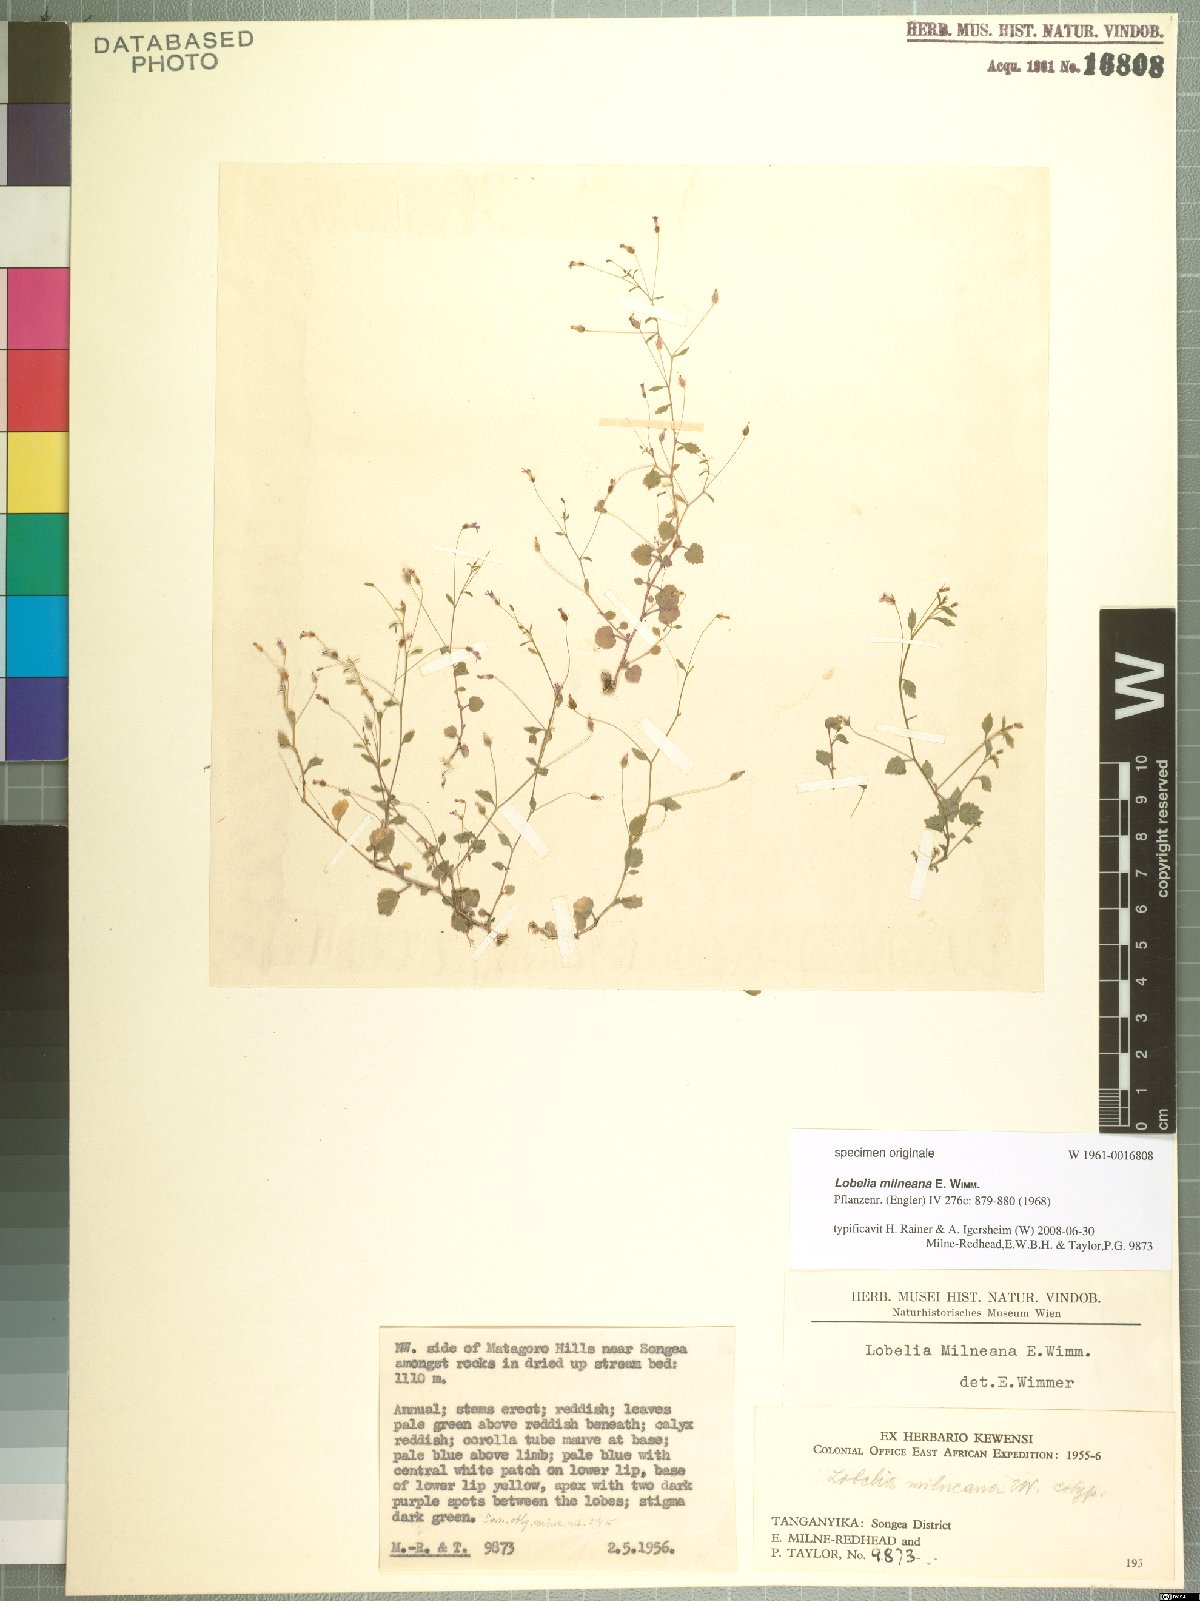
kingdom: Plantae
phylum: Tracheophyta
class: Magnoliopsida
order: Asterales
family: Campanulaceae
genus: Lobelia
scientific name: Lobelia trullifolia
